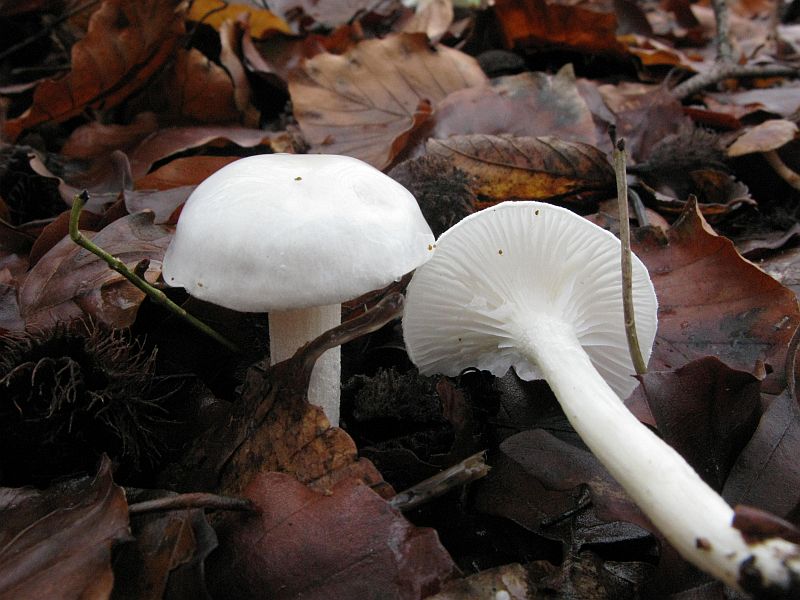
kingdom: Fungi
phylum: Basidiomycota
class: Agaricomycetes
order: Agaricales
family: Hygrophoraceae
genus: Hygrophorus
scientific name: Hygrophorus eburneus
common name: elfenbens-sneglehat
